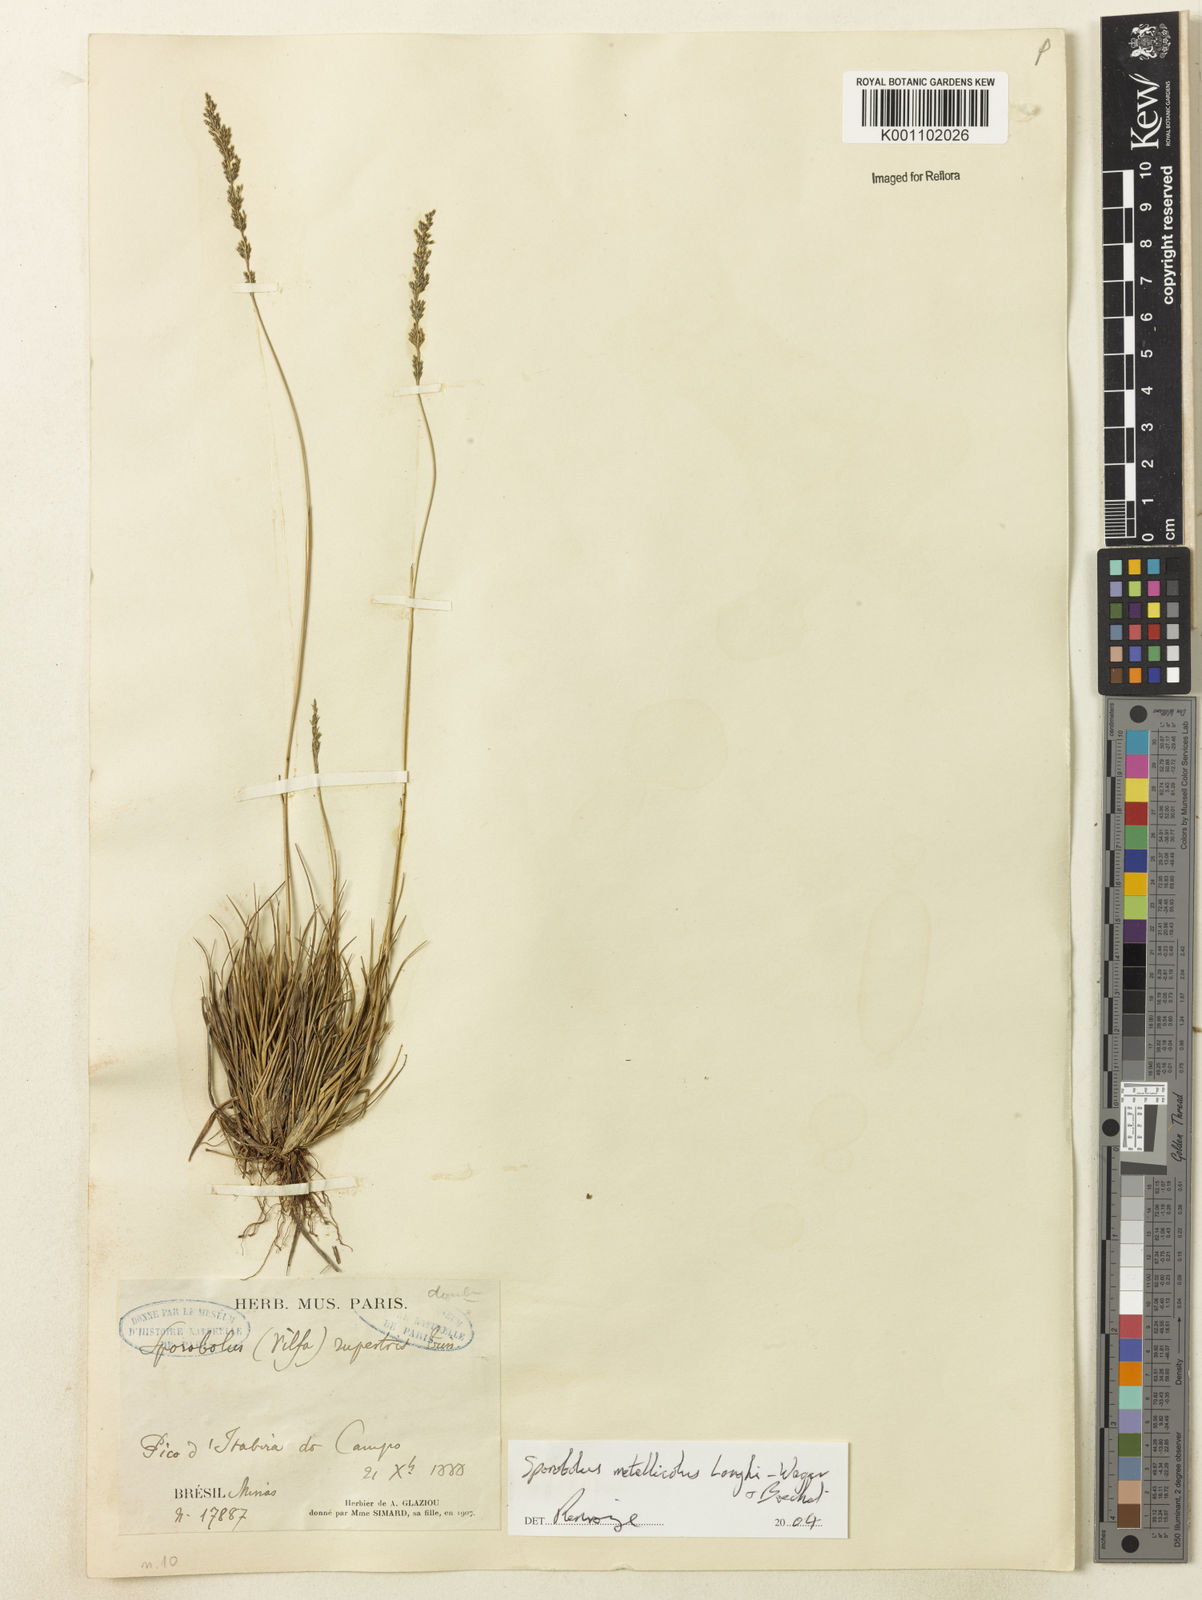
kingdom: Plantae
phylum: Tracheophyta
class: Liliopsida
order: Poales
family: Poaceae
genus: Sporobolus
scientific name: Sporobolus metallicola
